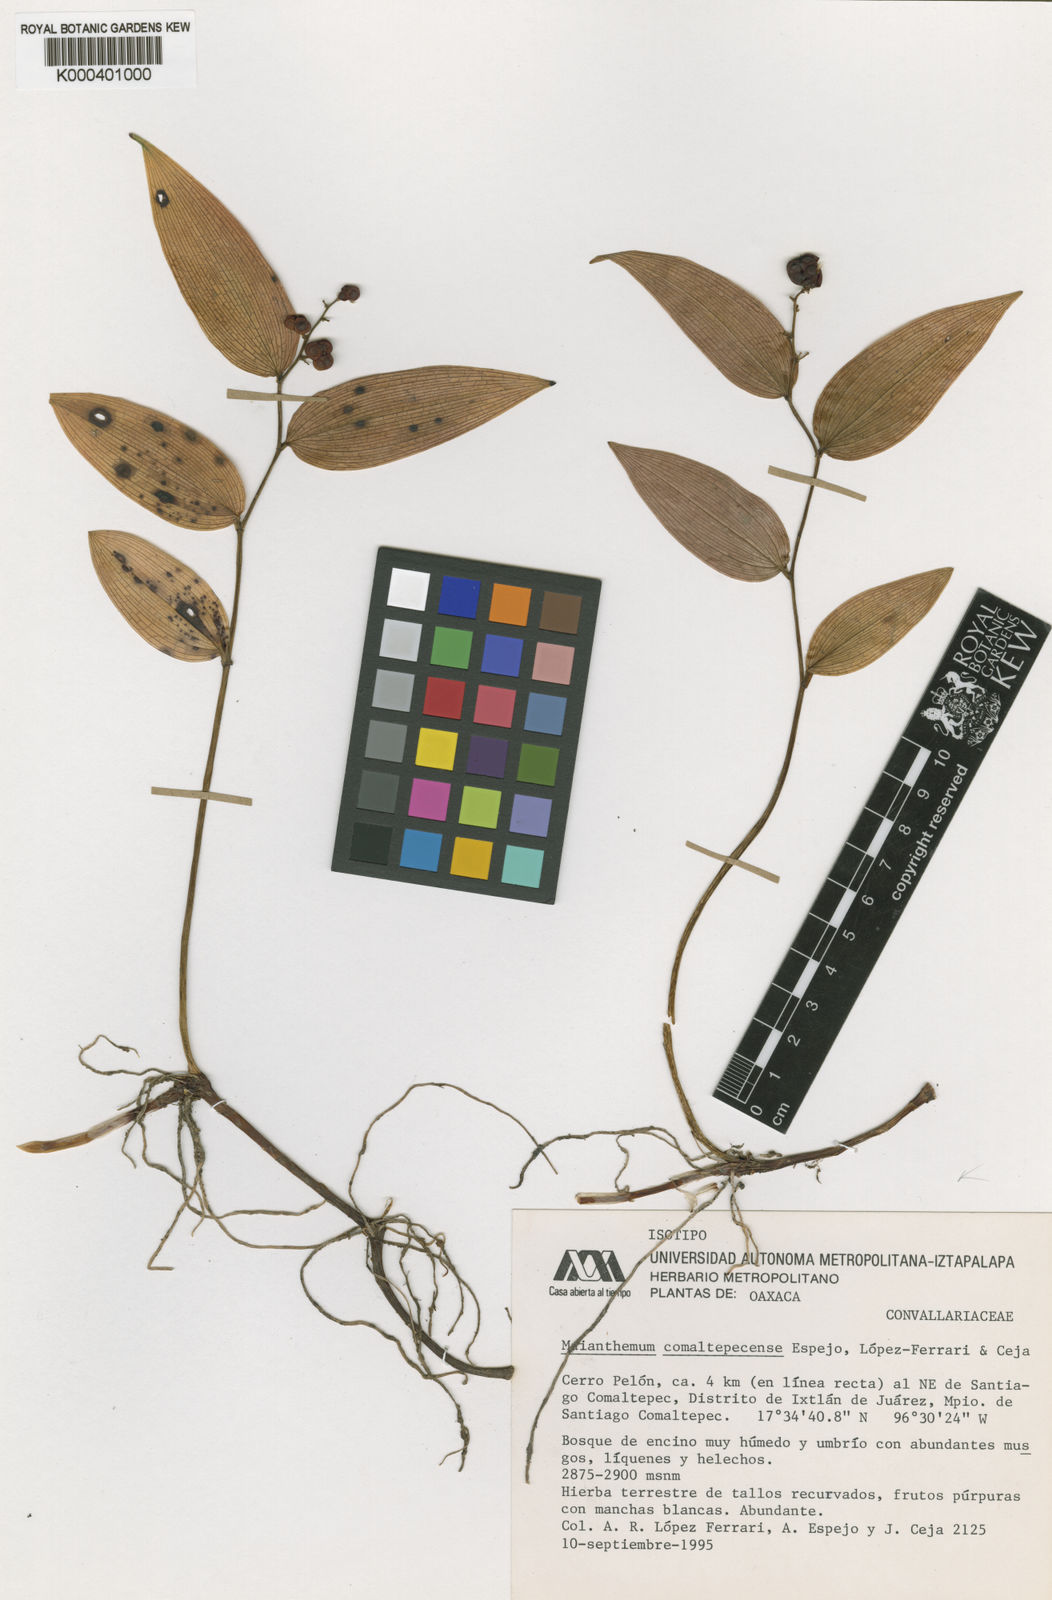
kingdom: Plantae
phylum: Tracheophyta
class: Liliopsida
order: Asparagales
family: Asparagaceae
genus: Maianthemum
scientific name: Maianthemum
